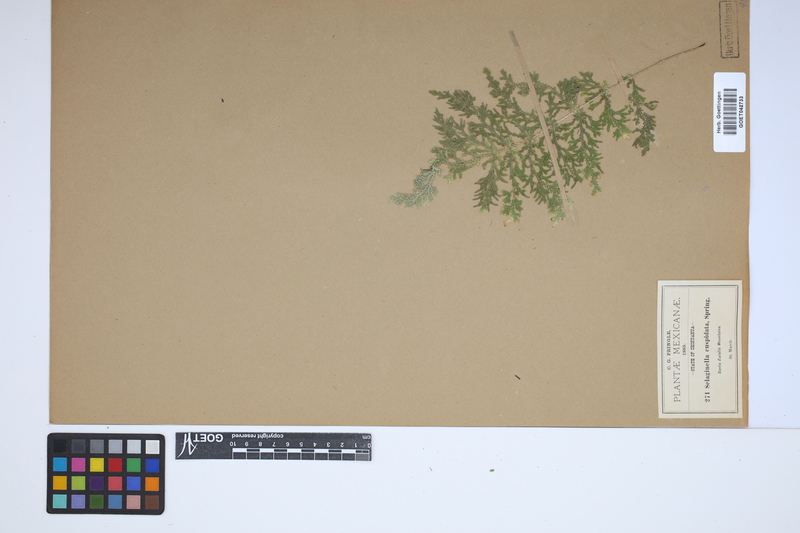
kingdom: Plantae
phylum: Tracheophyta
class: Lycopodiopsida
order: Selaginellales
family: Selaginellaceae
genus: Selaginella
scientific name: Selaginella pallescens
